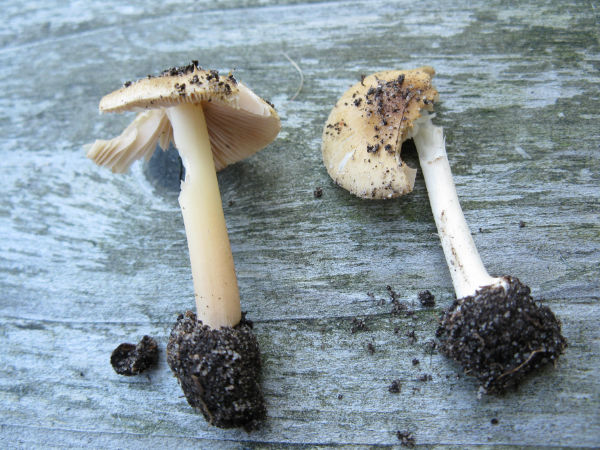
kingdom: Fungi
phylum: Basidiomycota
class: Agaricomycetes
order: Agaricales
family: Inocybaceae
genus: Inocybe
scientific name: Inocybe mixtilis
